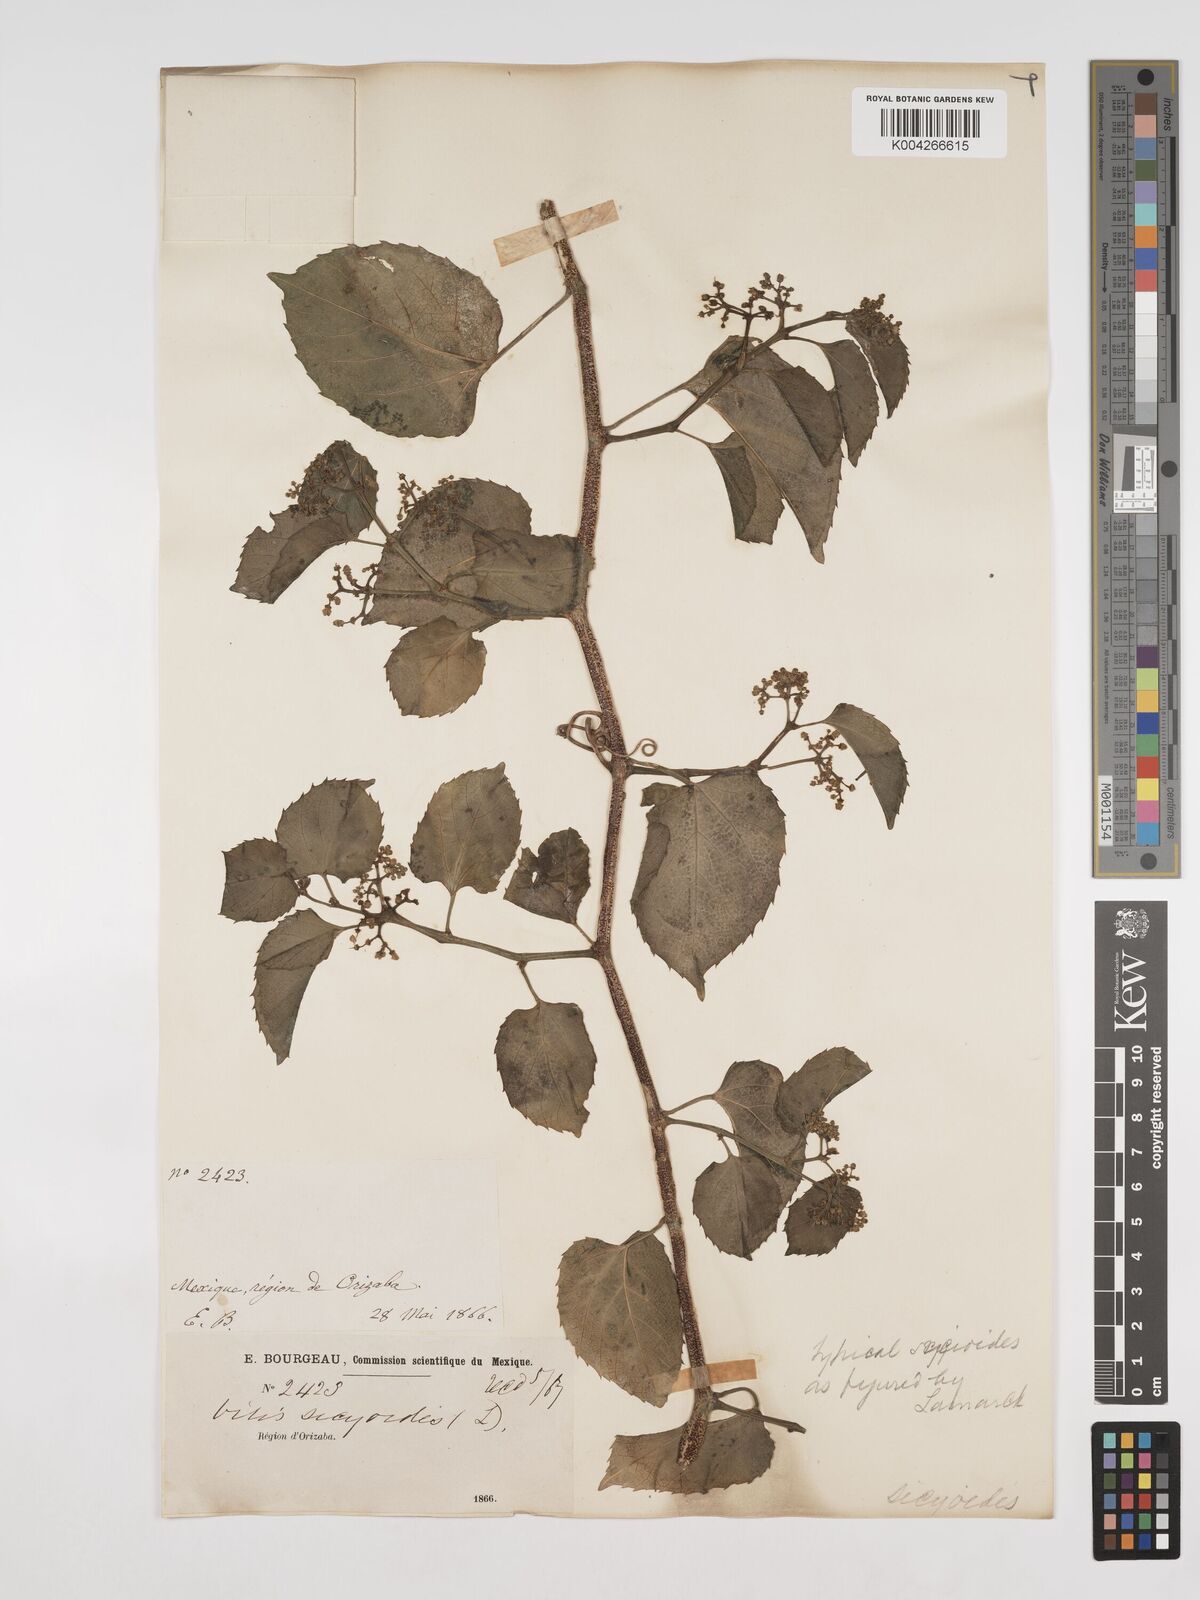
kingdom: Plantae
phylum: Tracheophyta
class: Magnoliopsida
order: Vitales
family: Vitaceae
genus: Cissus
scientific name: Cissus
